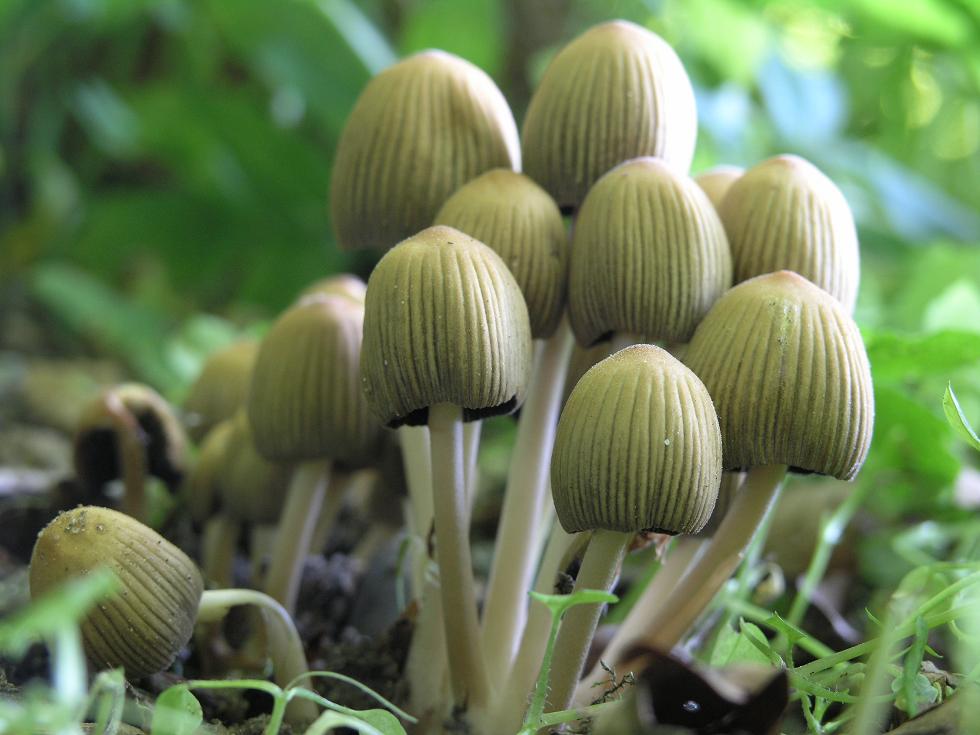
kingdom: Fungi
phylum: Basidiomycota
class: Agaricomycetes
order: Agaricales
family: Psathyrellaceae
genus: Coprinellus
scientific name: Coprinellus deliquescens
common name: rusporet blækhat
